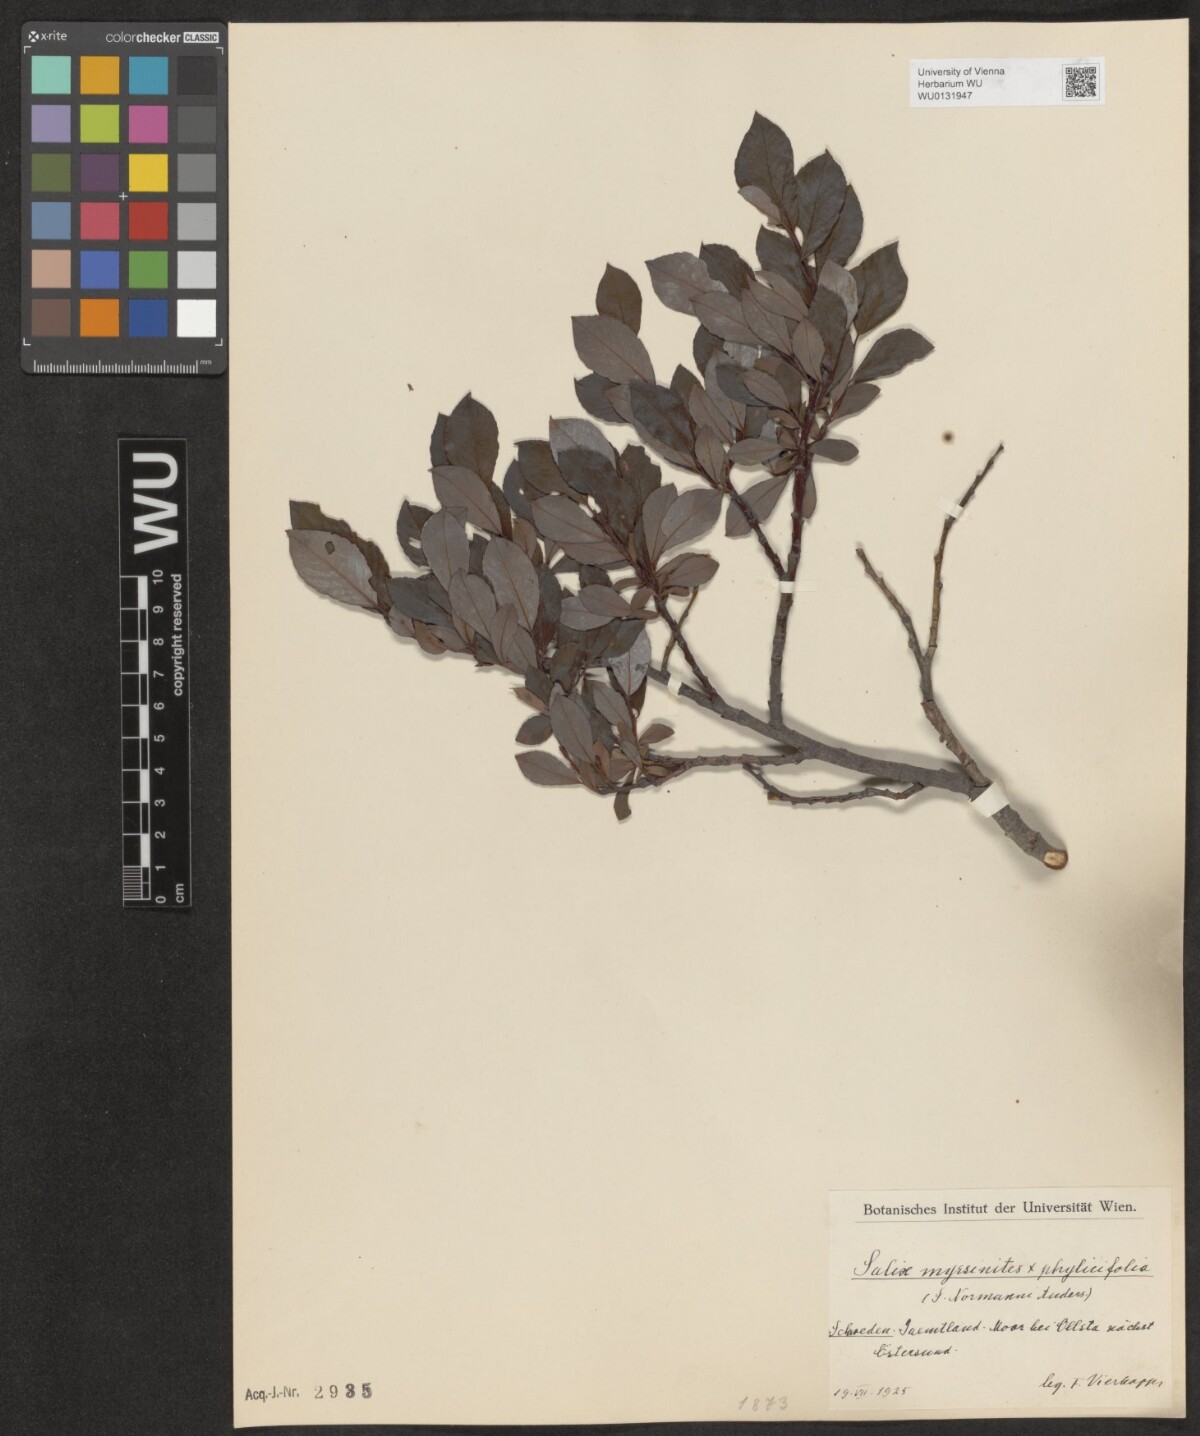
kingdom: Plantae
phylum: Tracheophyta
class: Magnoliopsida
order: Malpighiales
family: Salicaceae
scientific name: Salicaceae
